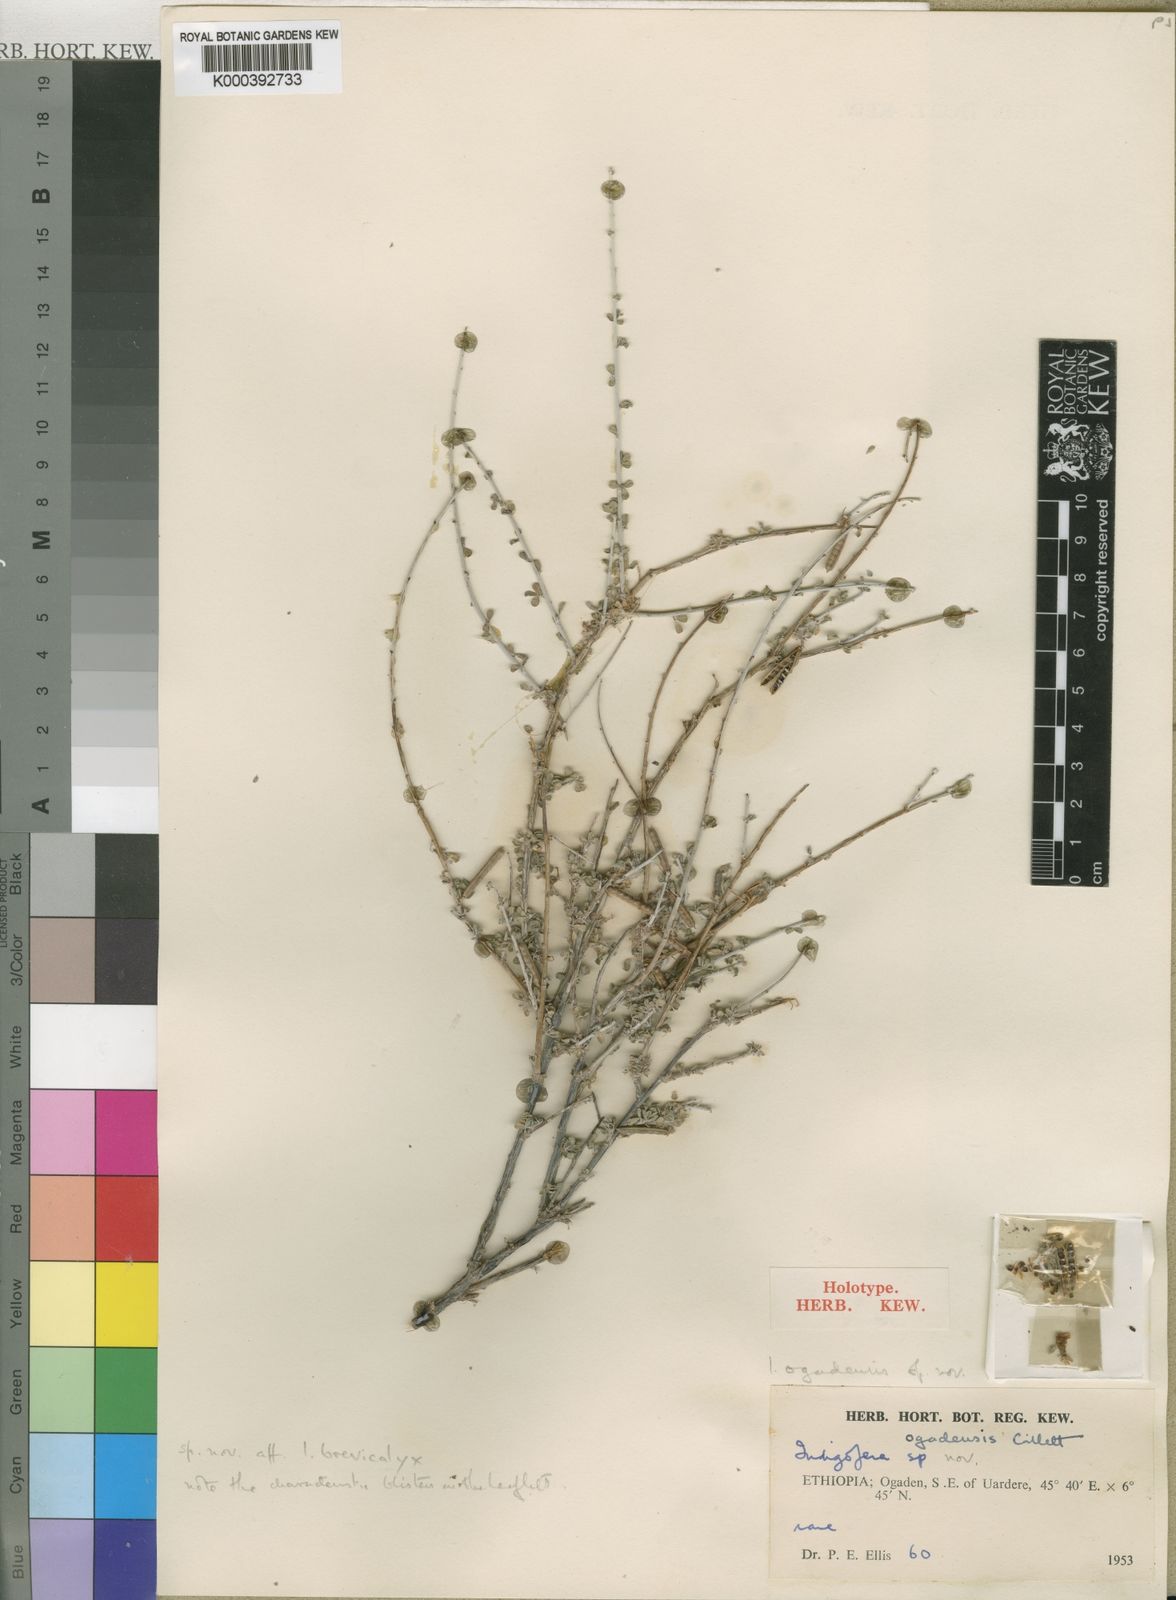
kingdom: Plantae
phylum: Tracheophyta
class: Magnoliopsida
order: Fabales
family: Fabaceae
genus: Indigofera
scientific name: Indigofera ogadensis
